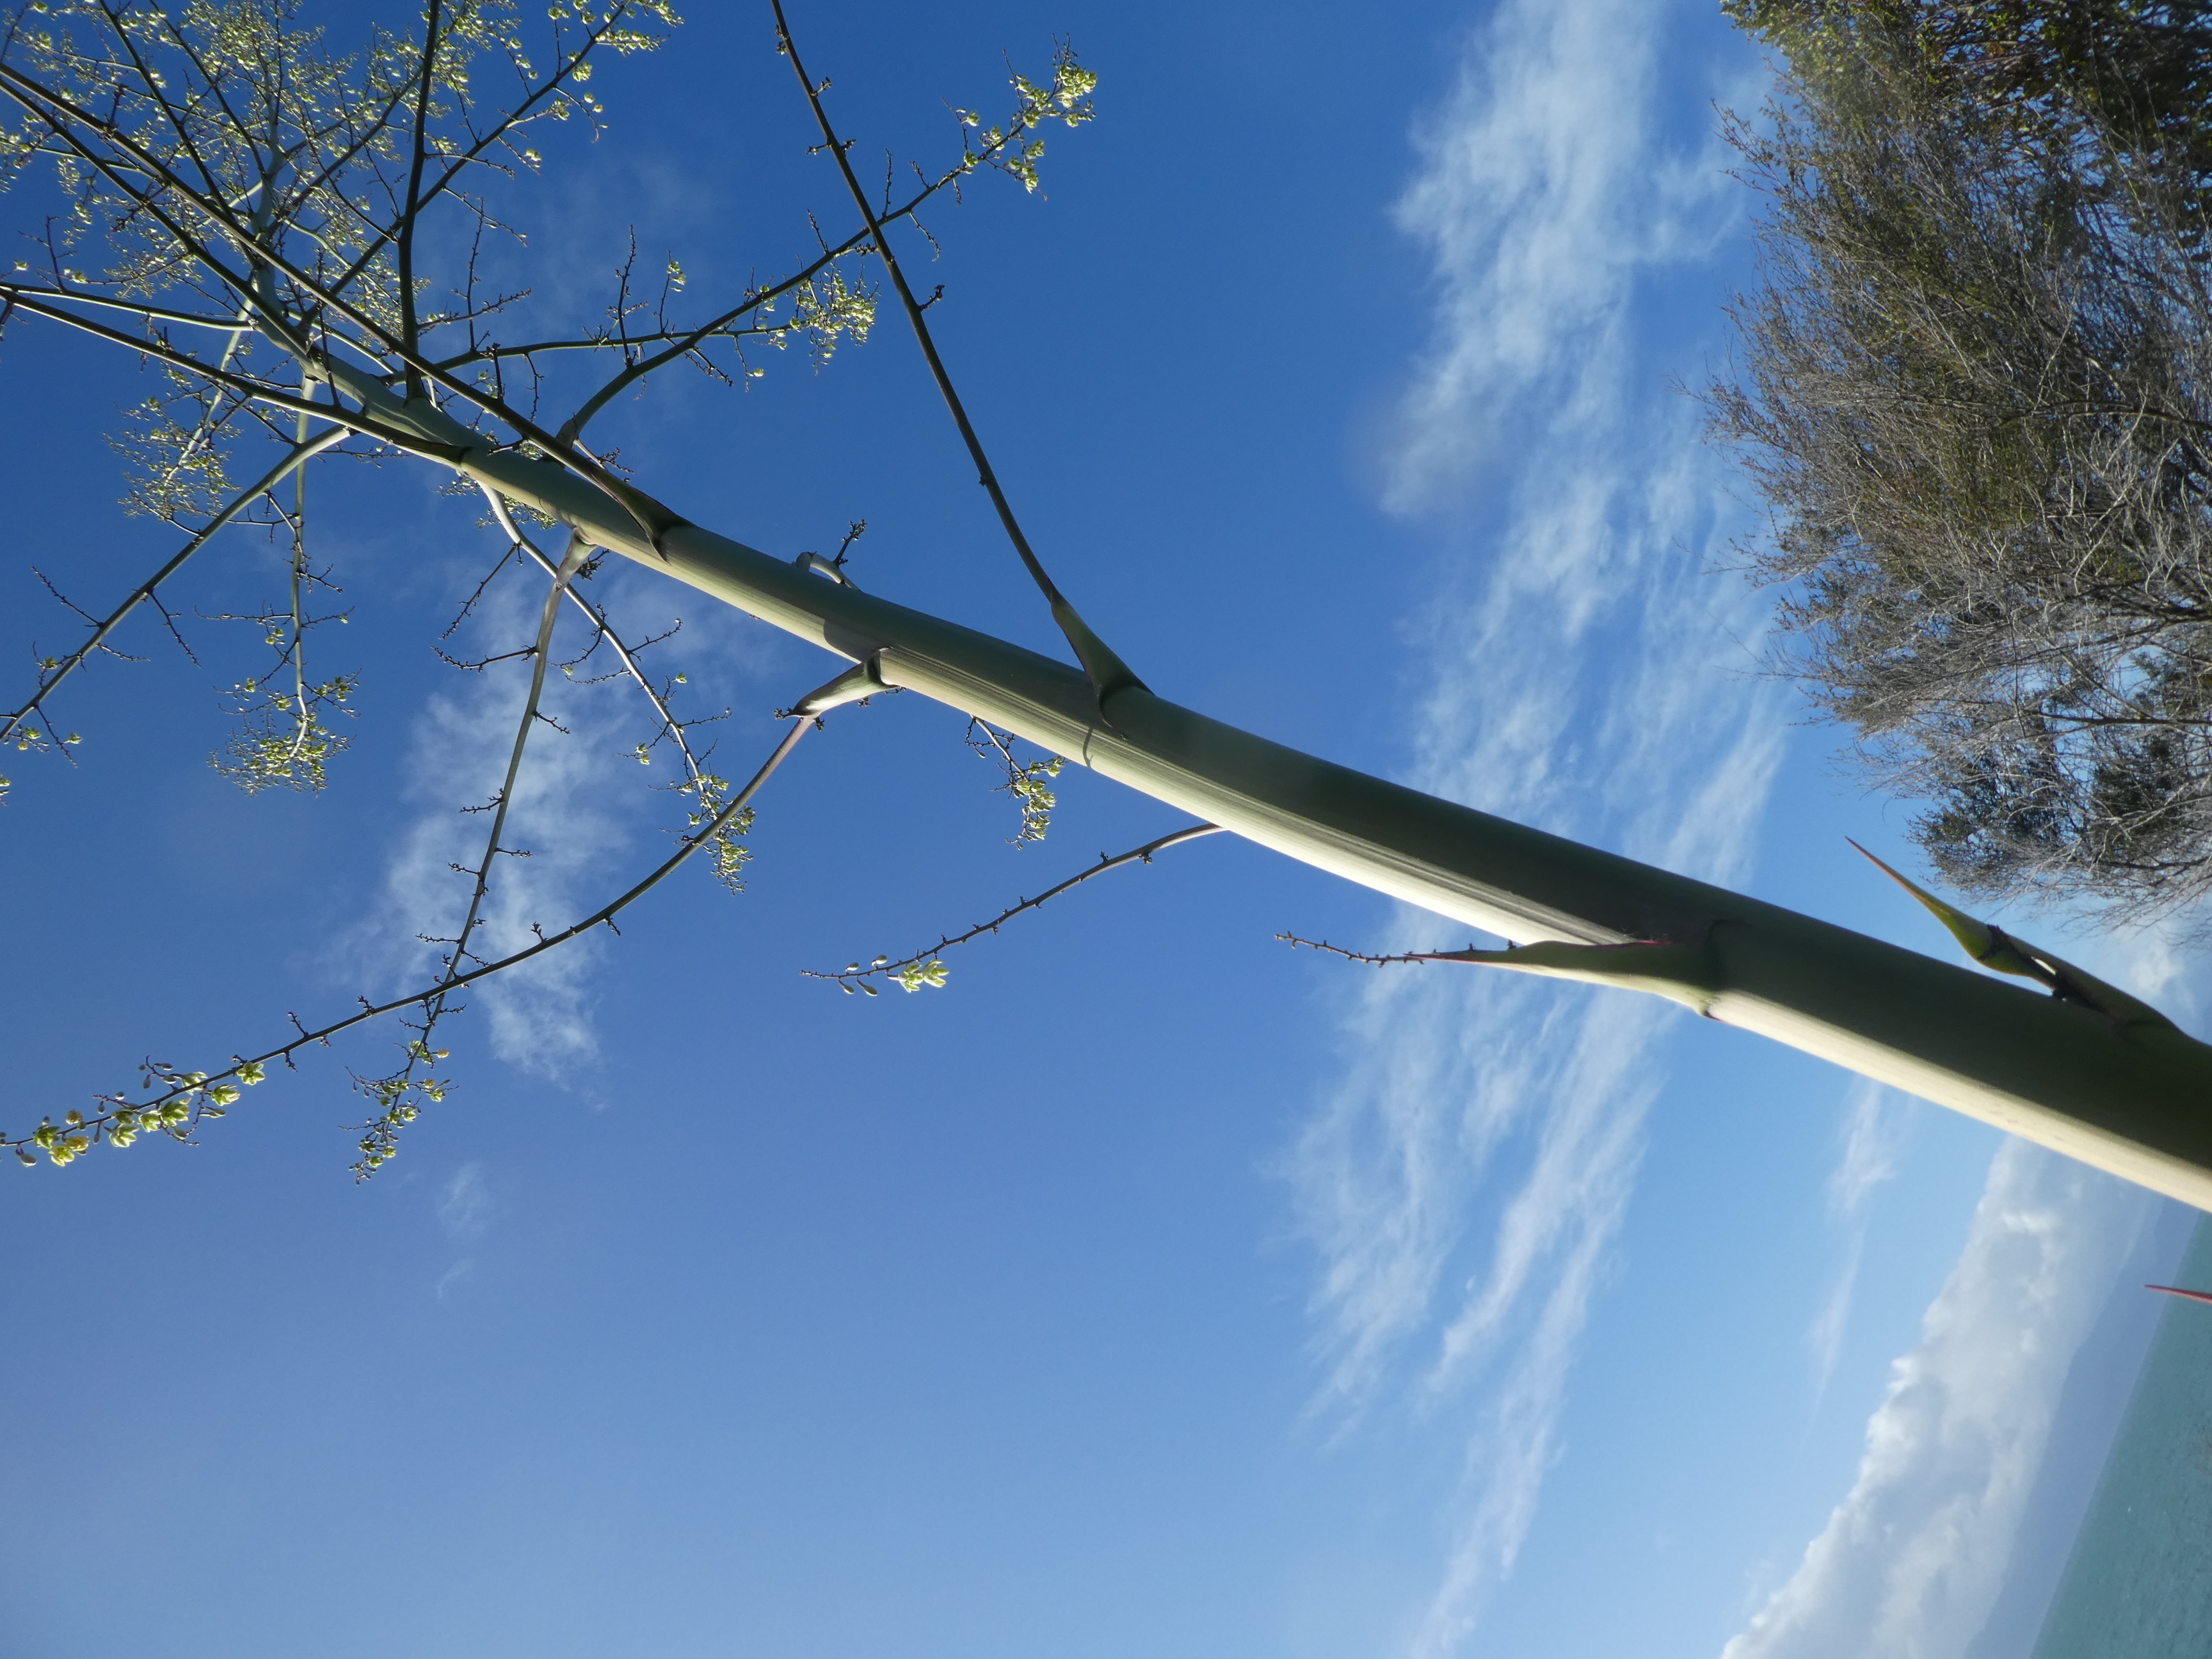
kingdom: Plantae
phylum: Tracheophyta
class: Liliopsida
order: Asparagales
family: Asparagaceae
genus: Furcraea
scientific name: Furcraea foetida
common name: Mauritius hemp
